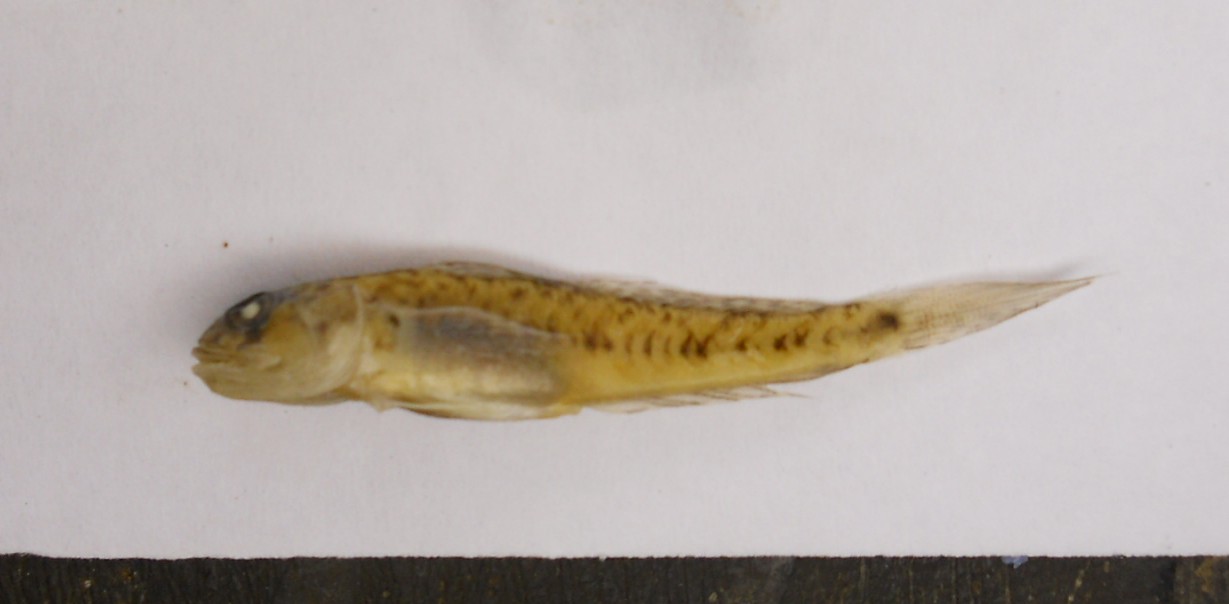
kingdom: Animalia
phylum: Chordata
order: Perciformes
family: Gobiidae
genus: Oligolepis
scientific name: Oligolepis keiensis
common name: Kei goby
